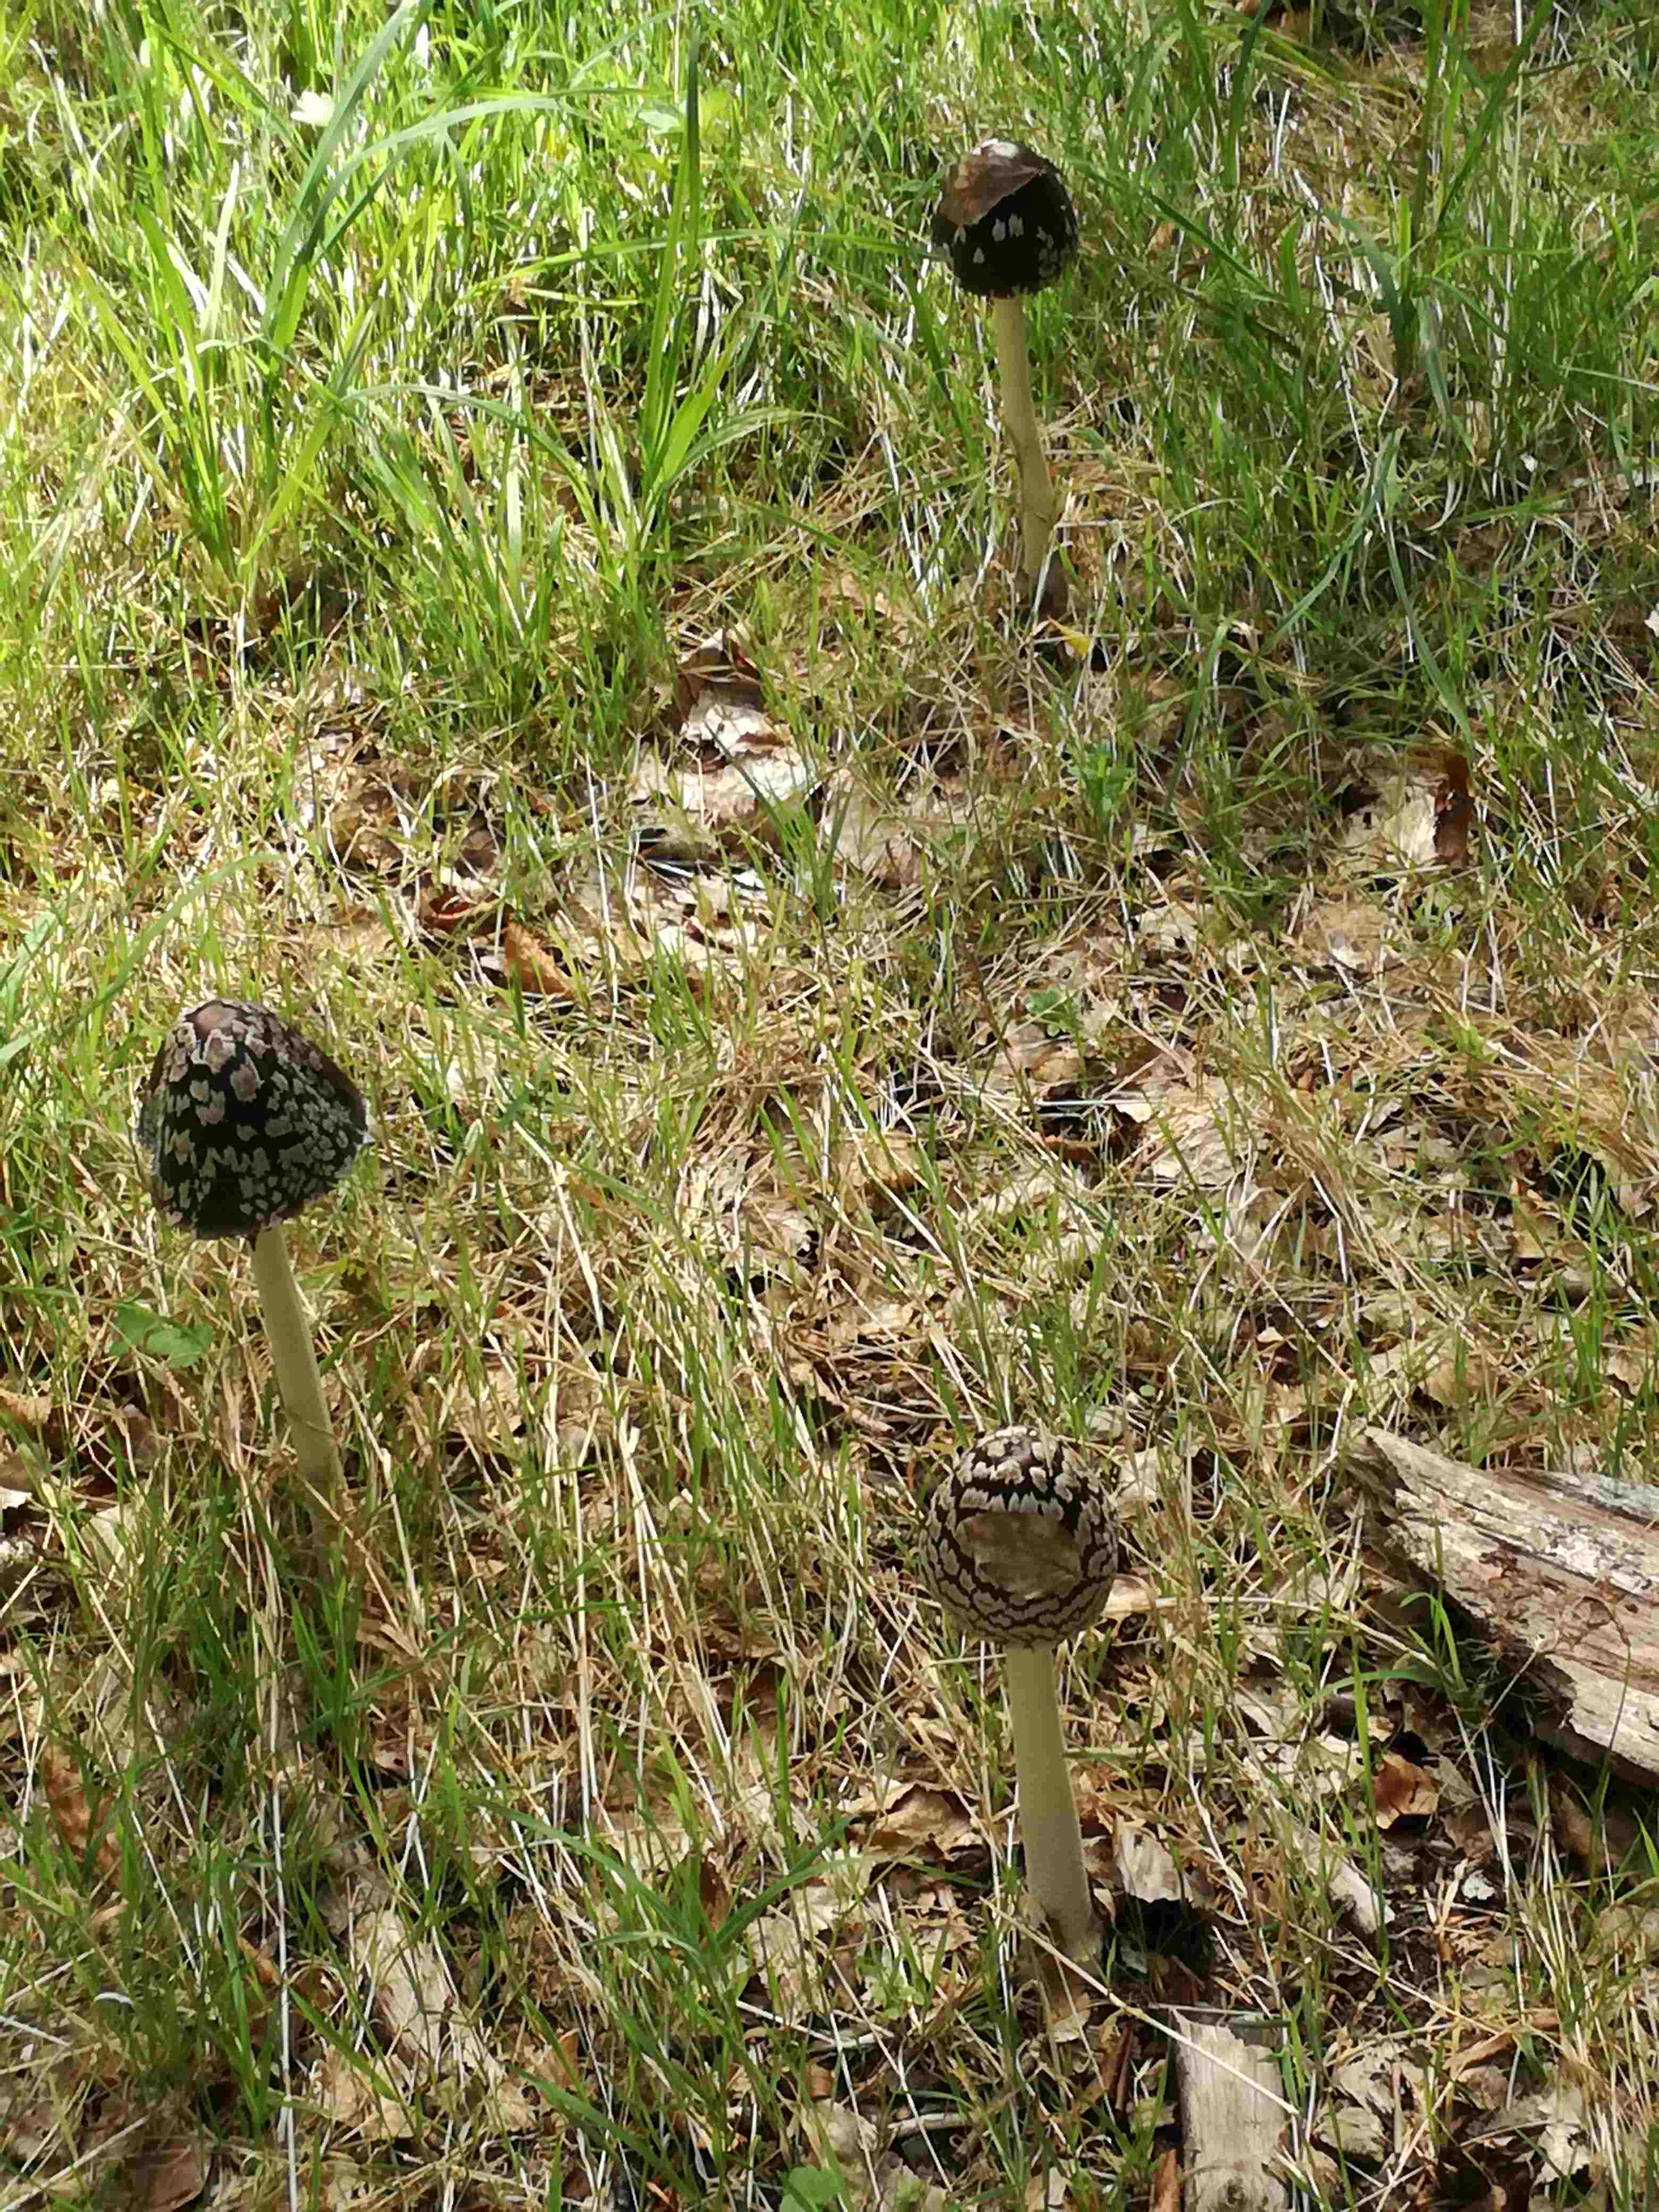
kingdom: Fungi
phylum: Basidiomycota
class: Agaricomycetes
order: Agaricales
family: Psathyrellaceae
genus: Coprinopsis
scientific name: Coprinopsis picacea
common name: skade-blækhat
